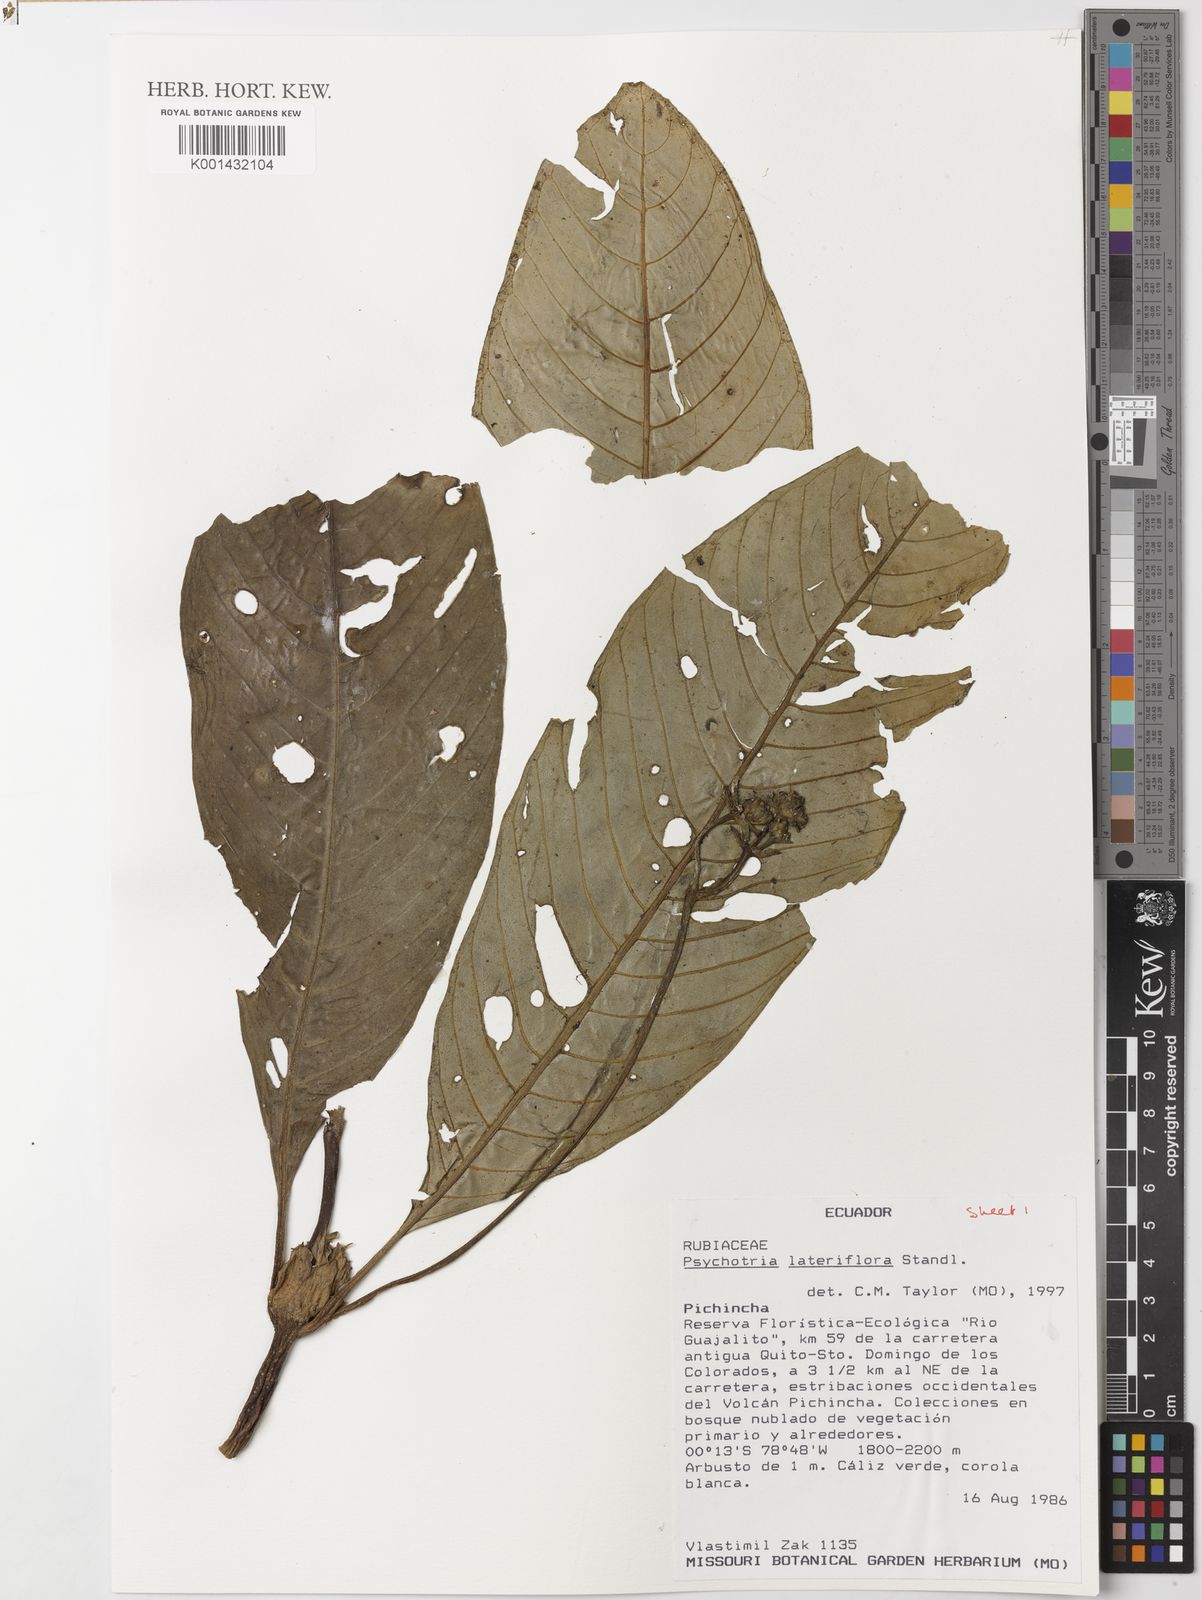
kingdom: Plantae
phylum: Tracheophyta
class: Magnoliopsida
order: Gentianales
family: Rubiaceae
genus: Notopleura
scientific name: Notopleura lateriflora
